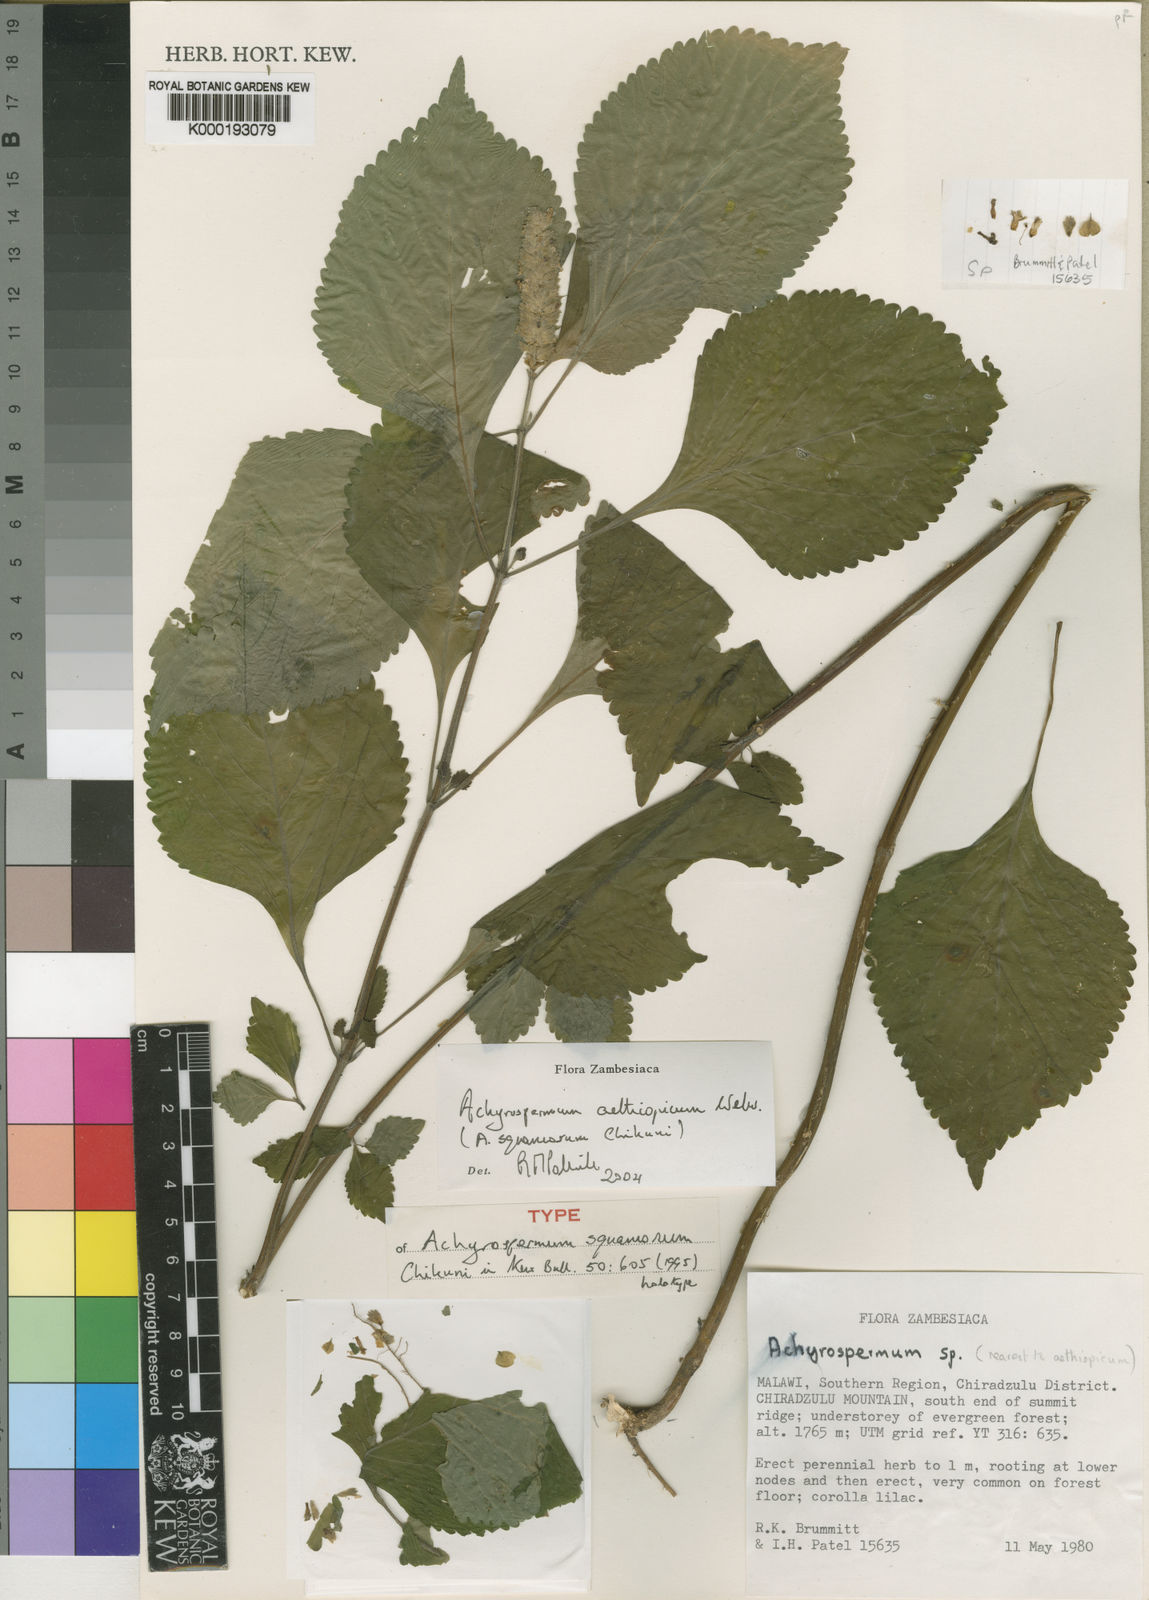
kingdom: Plantae
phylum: Tracheophyta
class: Magnoliopsida
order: Lamiales
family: Lamiaceae
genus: Achyrospermum
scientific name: Achyrospermum aethiopicum
